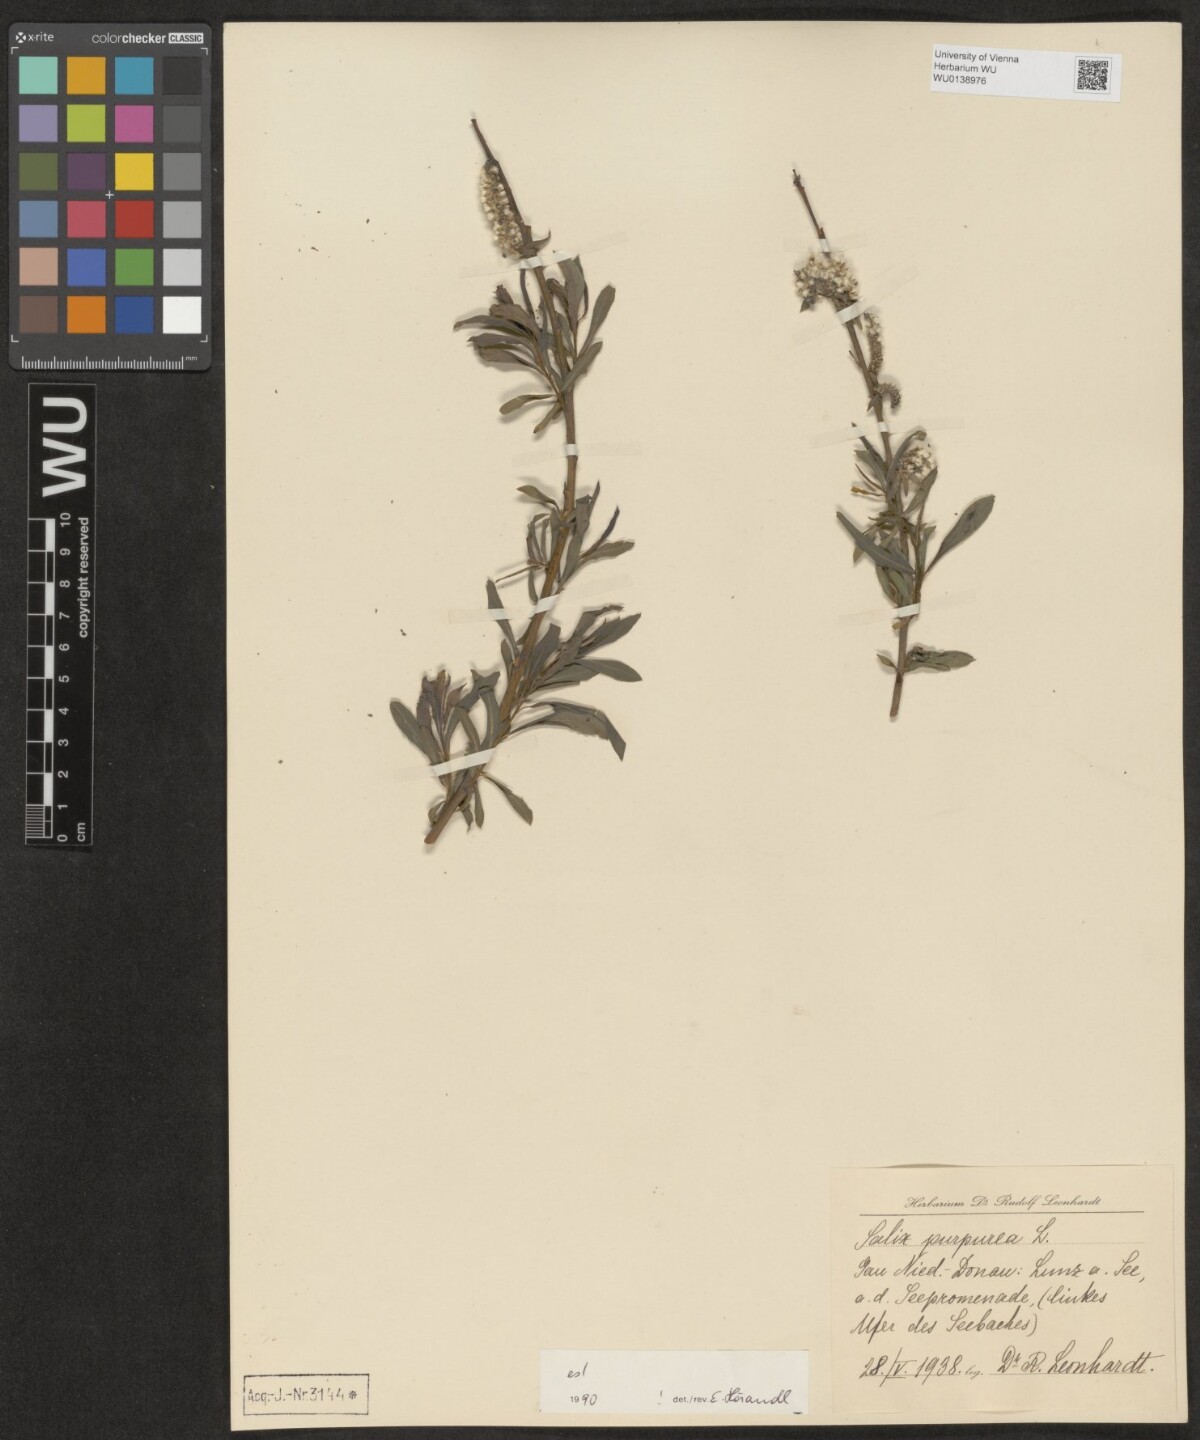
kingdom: Plantae
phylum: Tracheophyta
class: Magnoliopsida
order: Malpighiales
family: Salicaceae
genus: Salix
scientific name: Salix purpurea
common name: Purple willow
